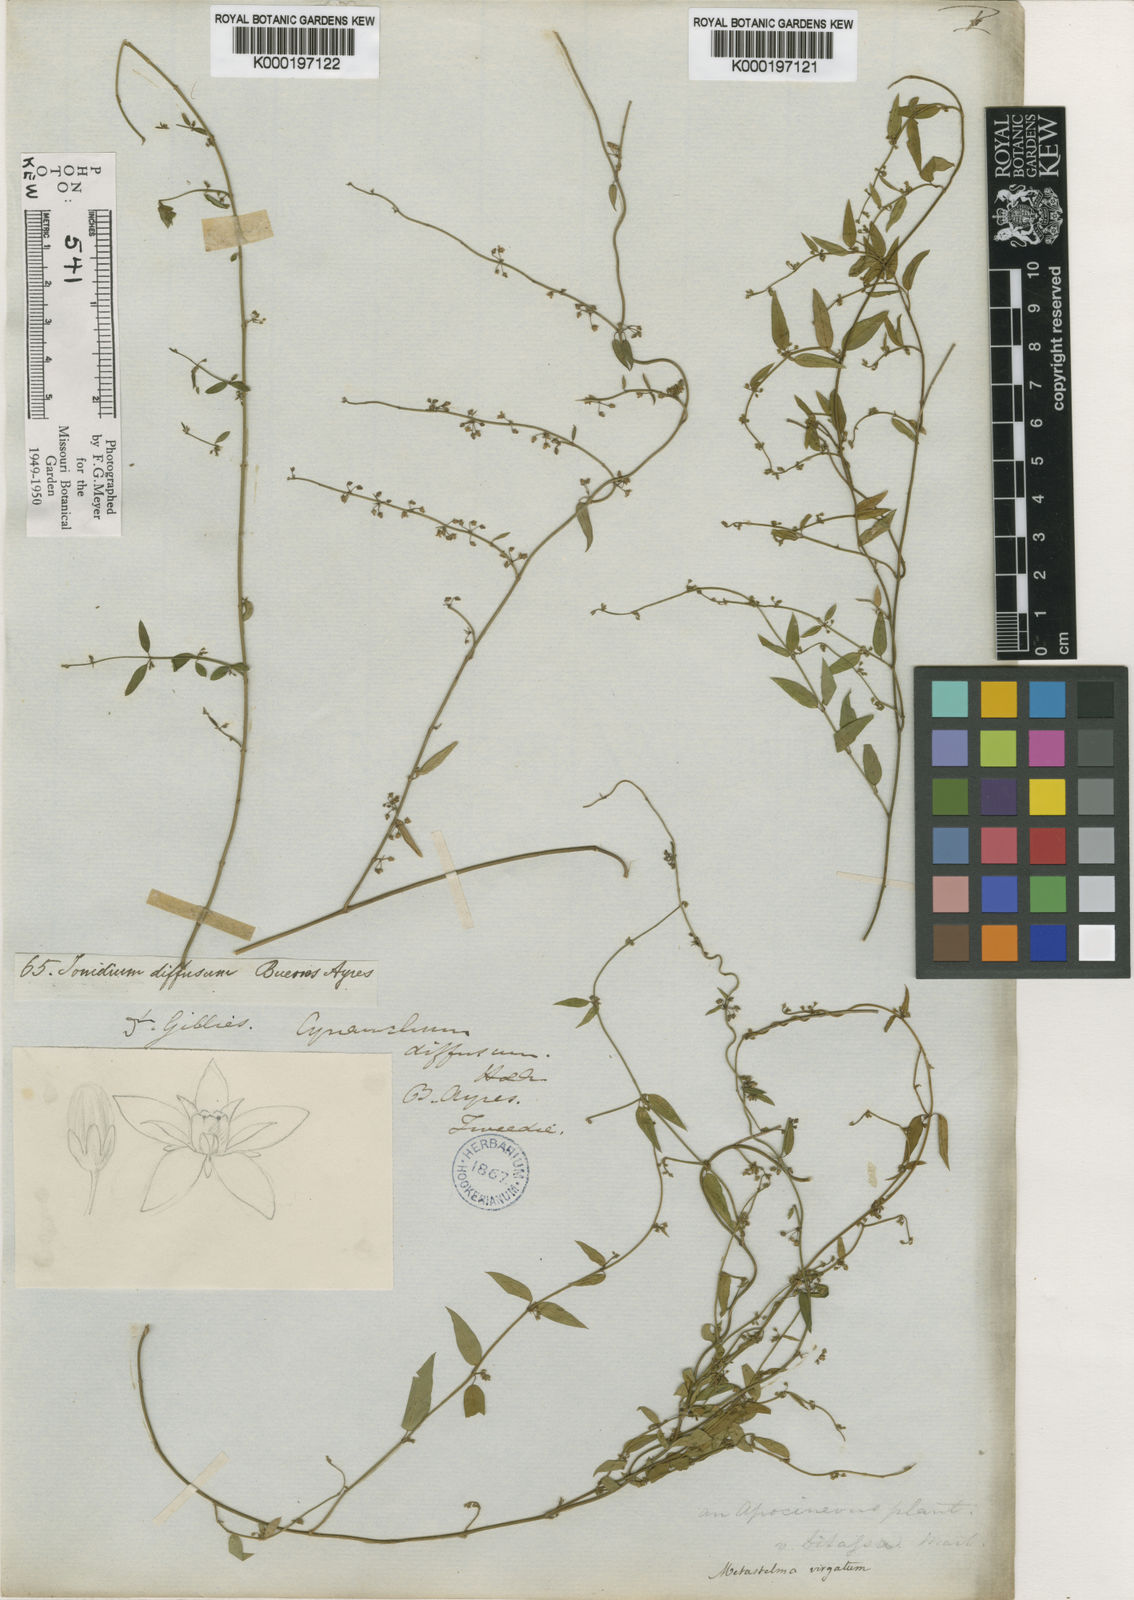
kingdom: Plantae
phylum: Tracheophyta
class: Magnoliopsida
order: Gentianales
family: Apocynaceae
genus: Orthosia
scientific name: Orthosia virgata
